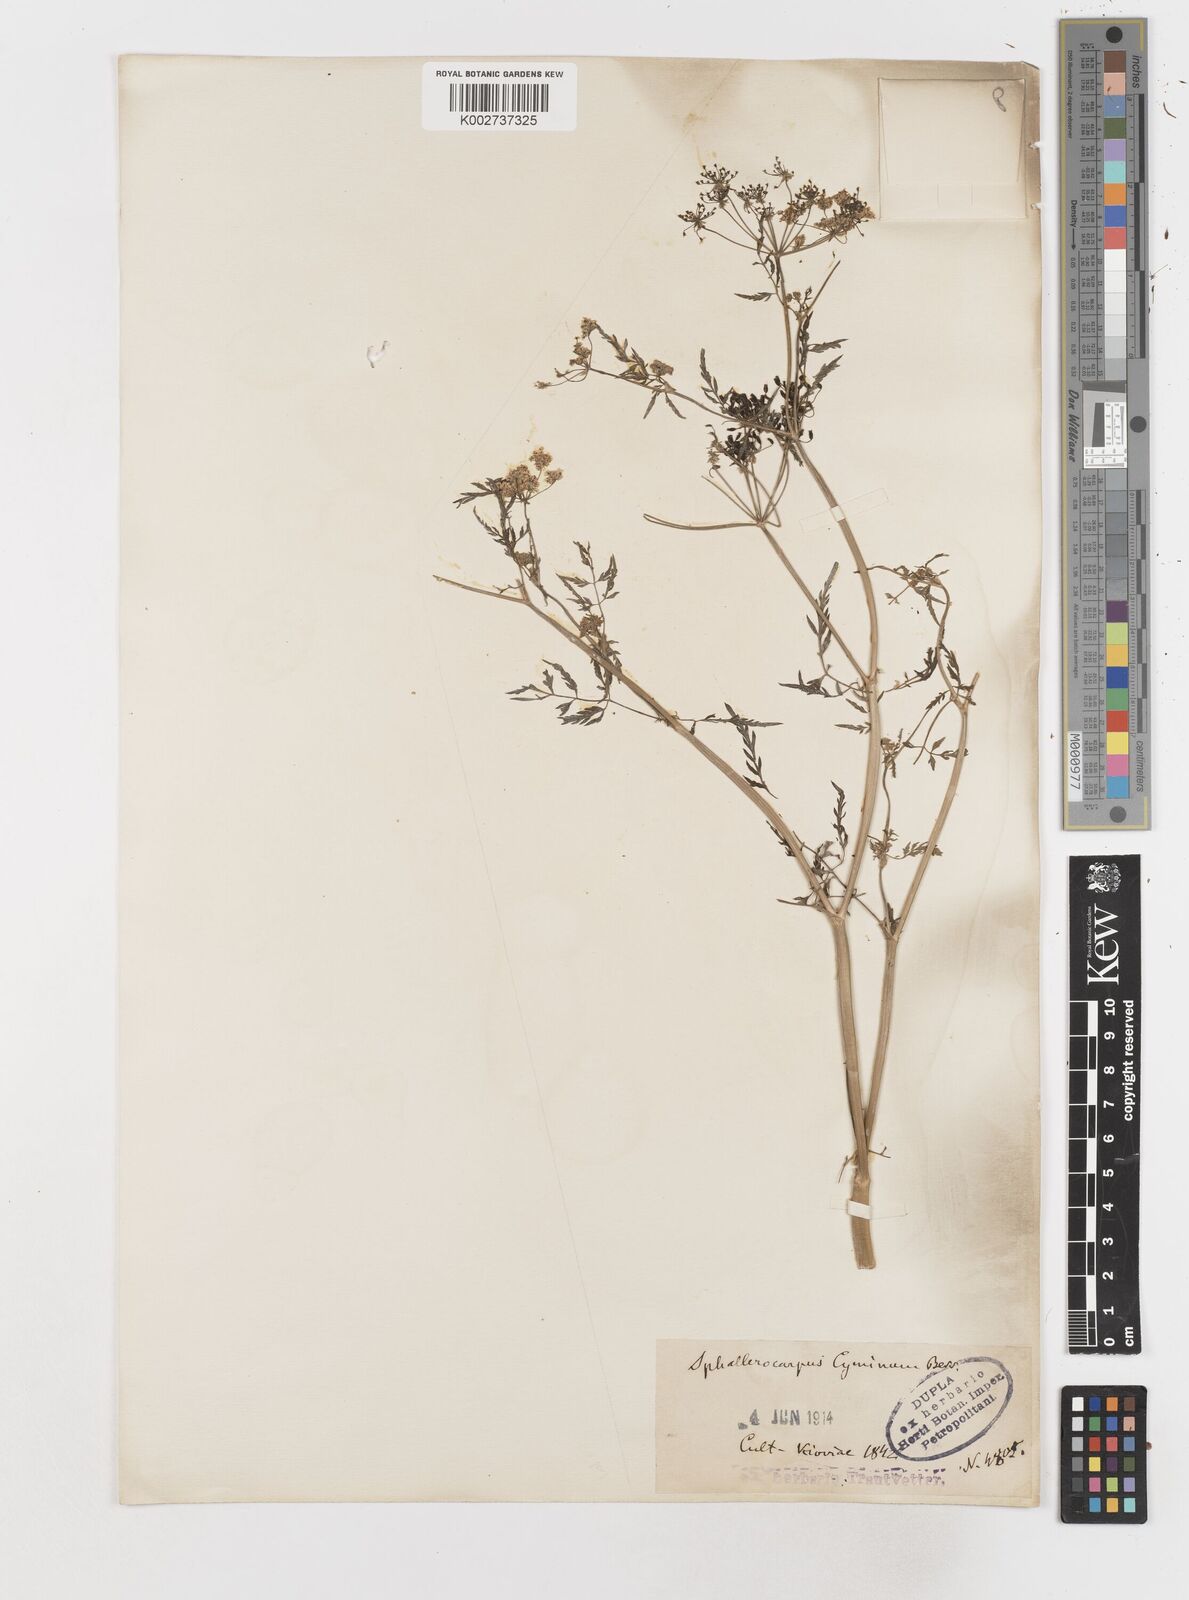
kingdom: Plantae
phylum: Tracheophyta
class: Magnoliopsida
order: Apiales
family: Apiaceae
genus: Sphallerocarpus
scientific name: Sphallerocarpus
